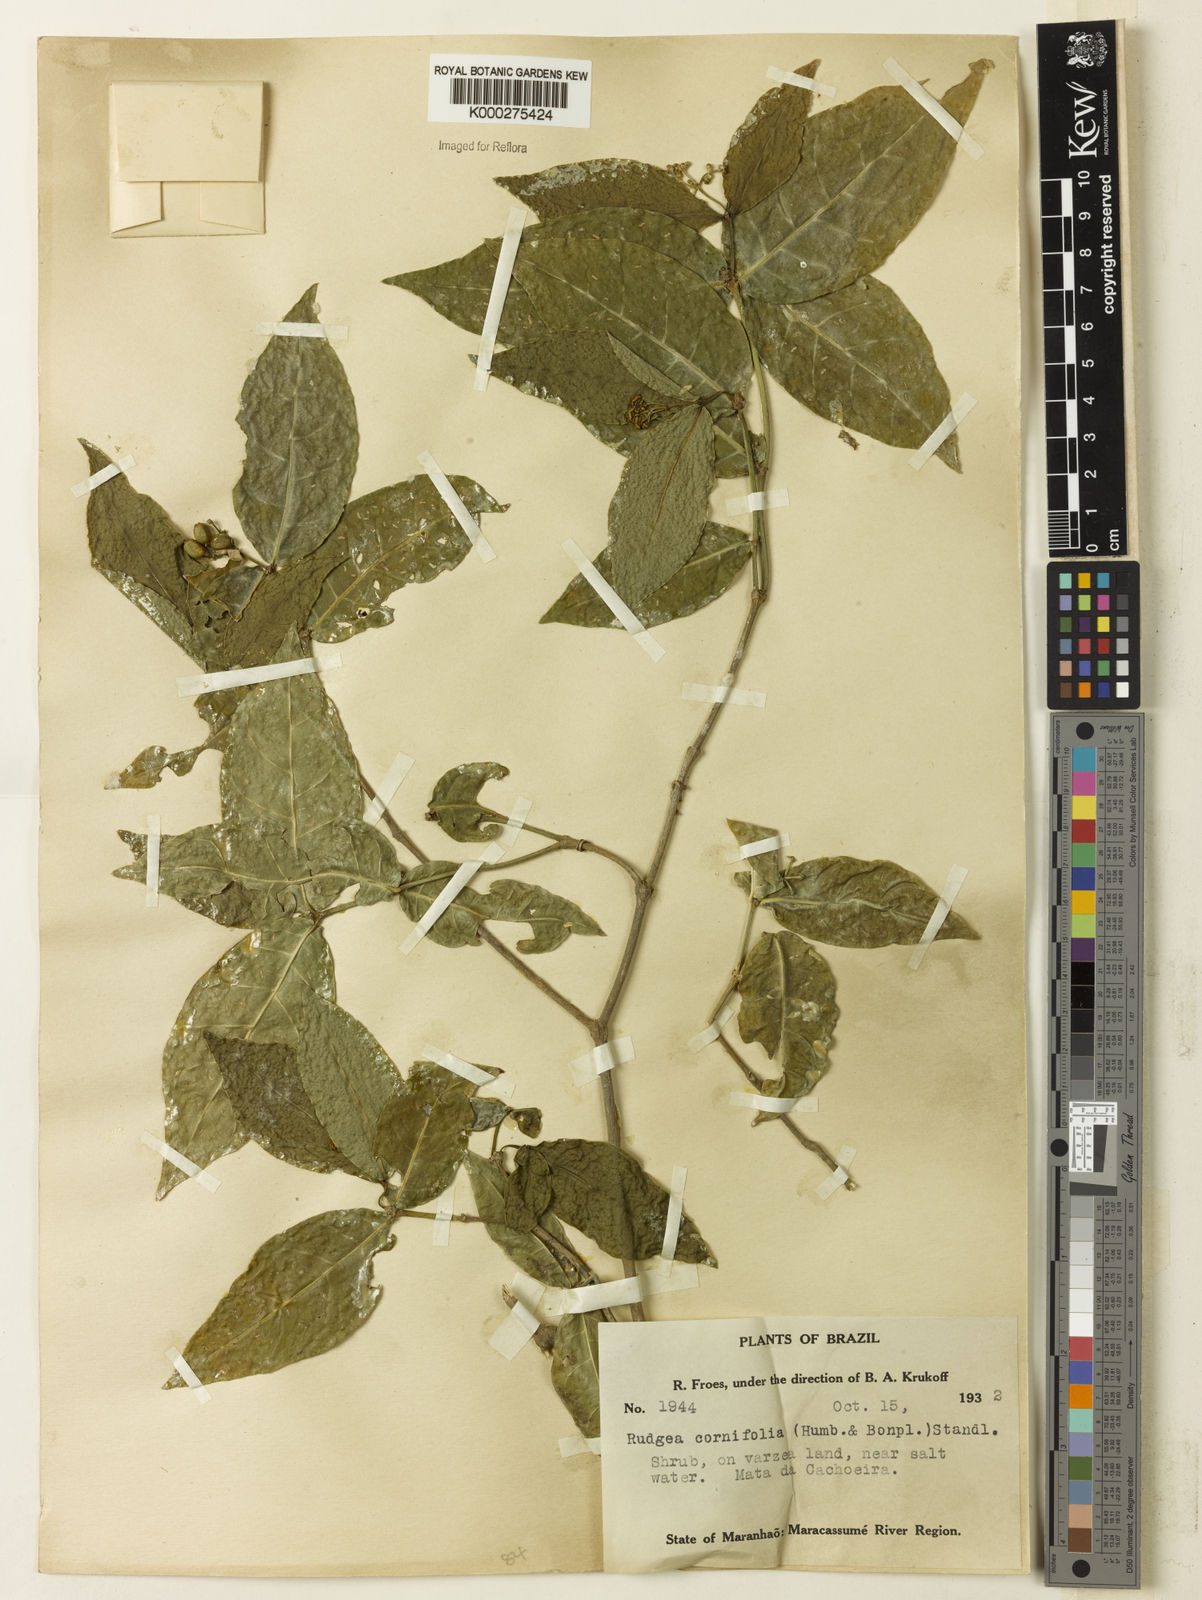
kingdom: Plantae
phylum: Tracheophyta
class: Magnoliopsida
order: Gentianales
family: Rubiaceae
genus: Rudgea
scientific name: Rudgea cornifolia
